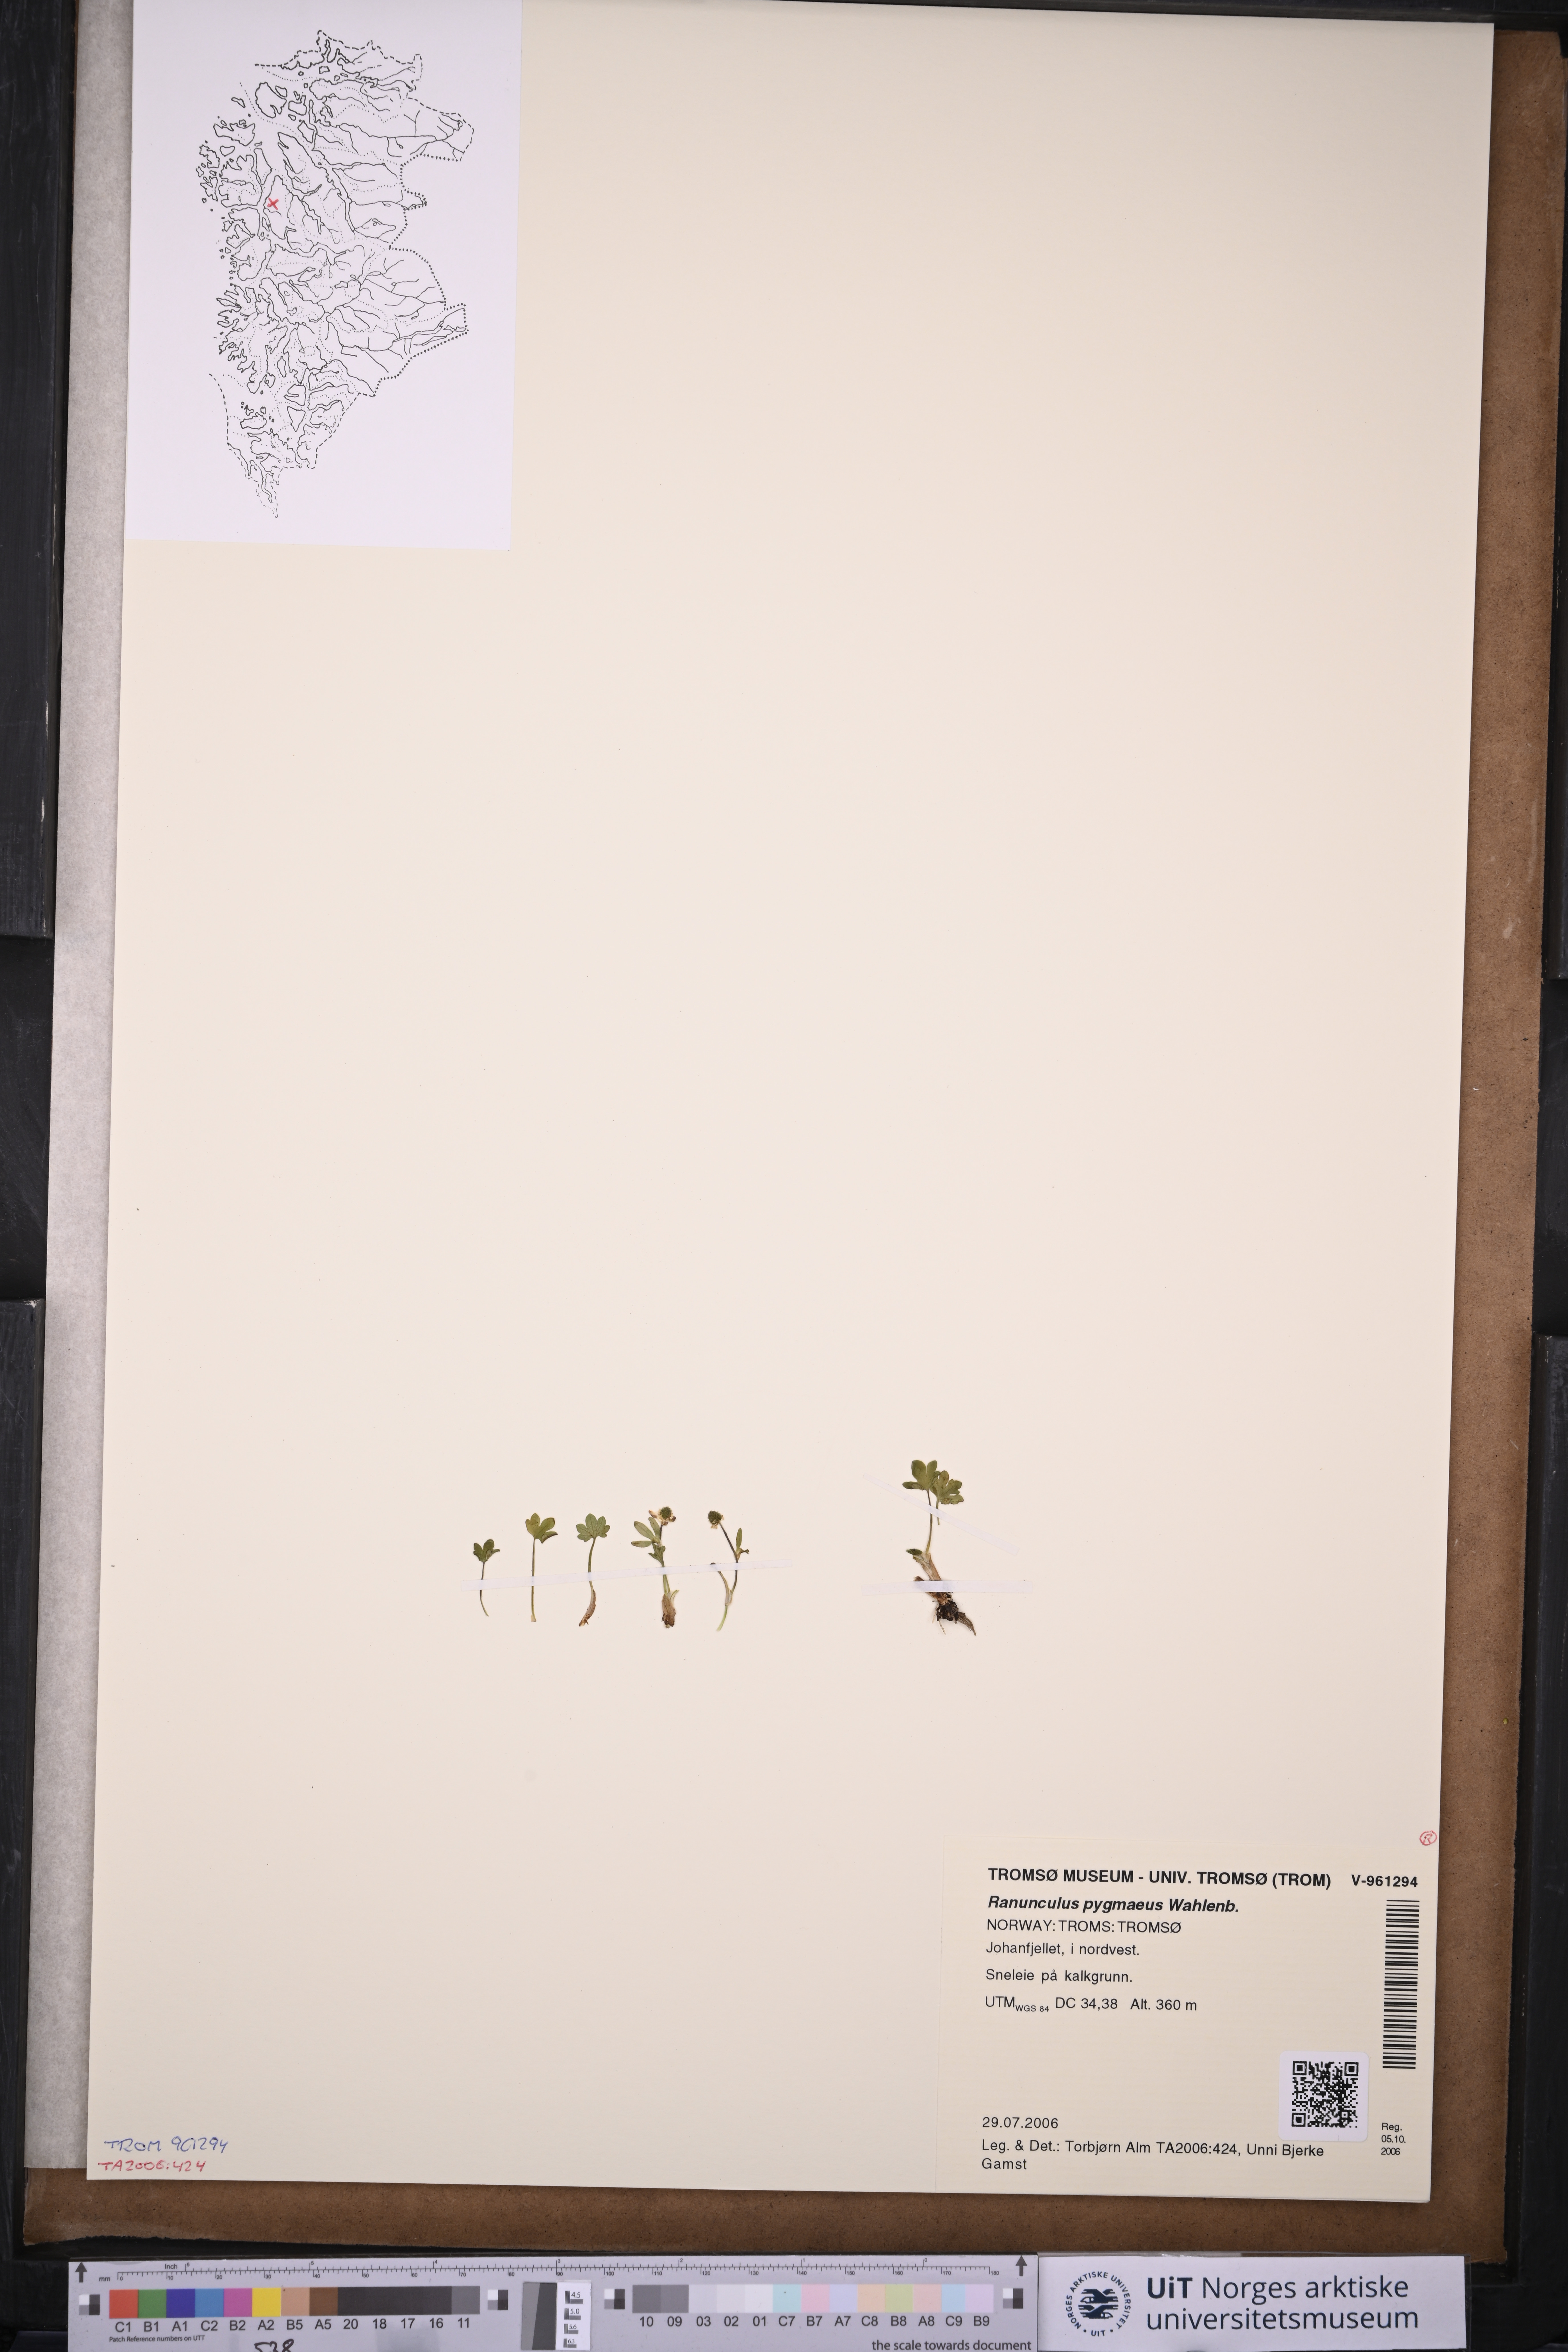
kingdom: Plantae
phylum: Tracheophyta
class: Magnoliopsida
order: Ranunculales
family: Ranunculaceae
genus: Ranunculus
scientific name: Ranunculus pygmaeus
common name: Dwarf buttercup
